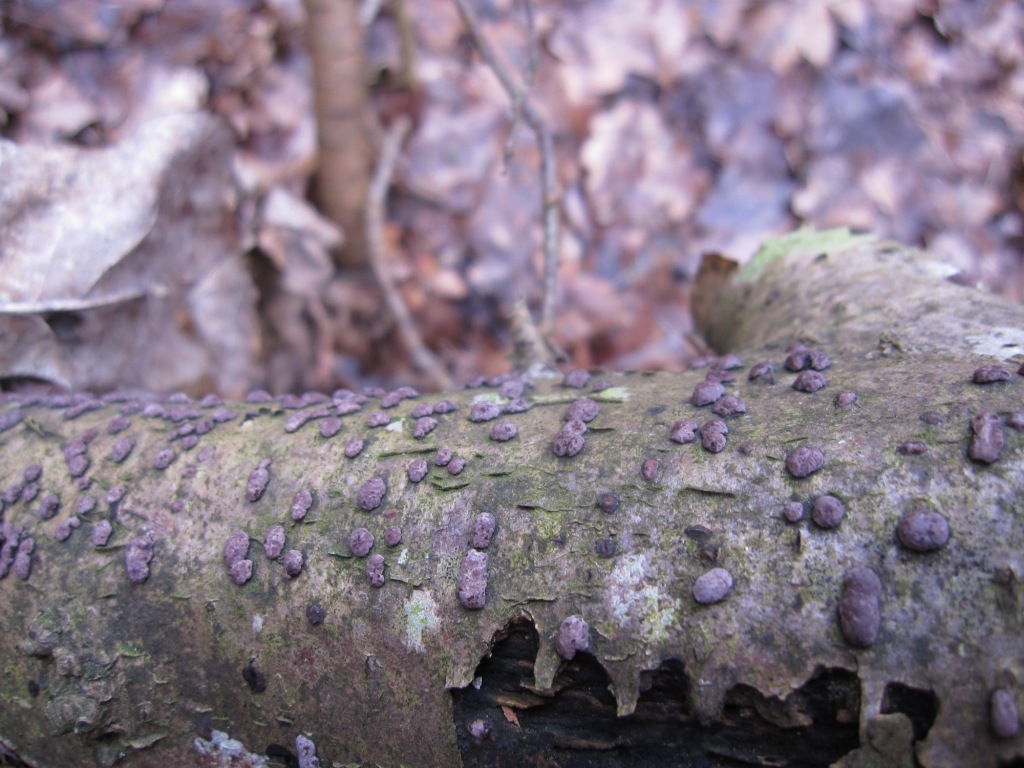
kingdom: Fungi
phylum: Ascomycota
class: Sordariomycetes
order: Xylariales
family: Hypoxylaceae
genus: Hypoxylon
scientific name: Hypoxylon fuscum
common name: kegleformet kulbær
